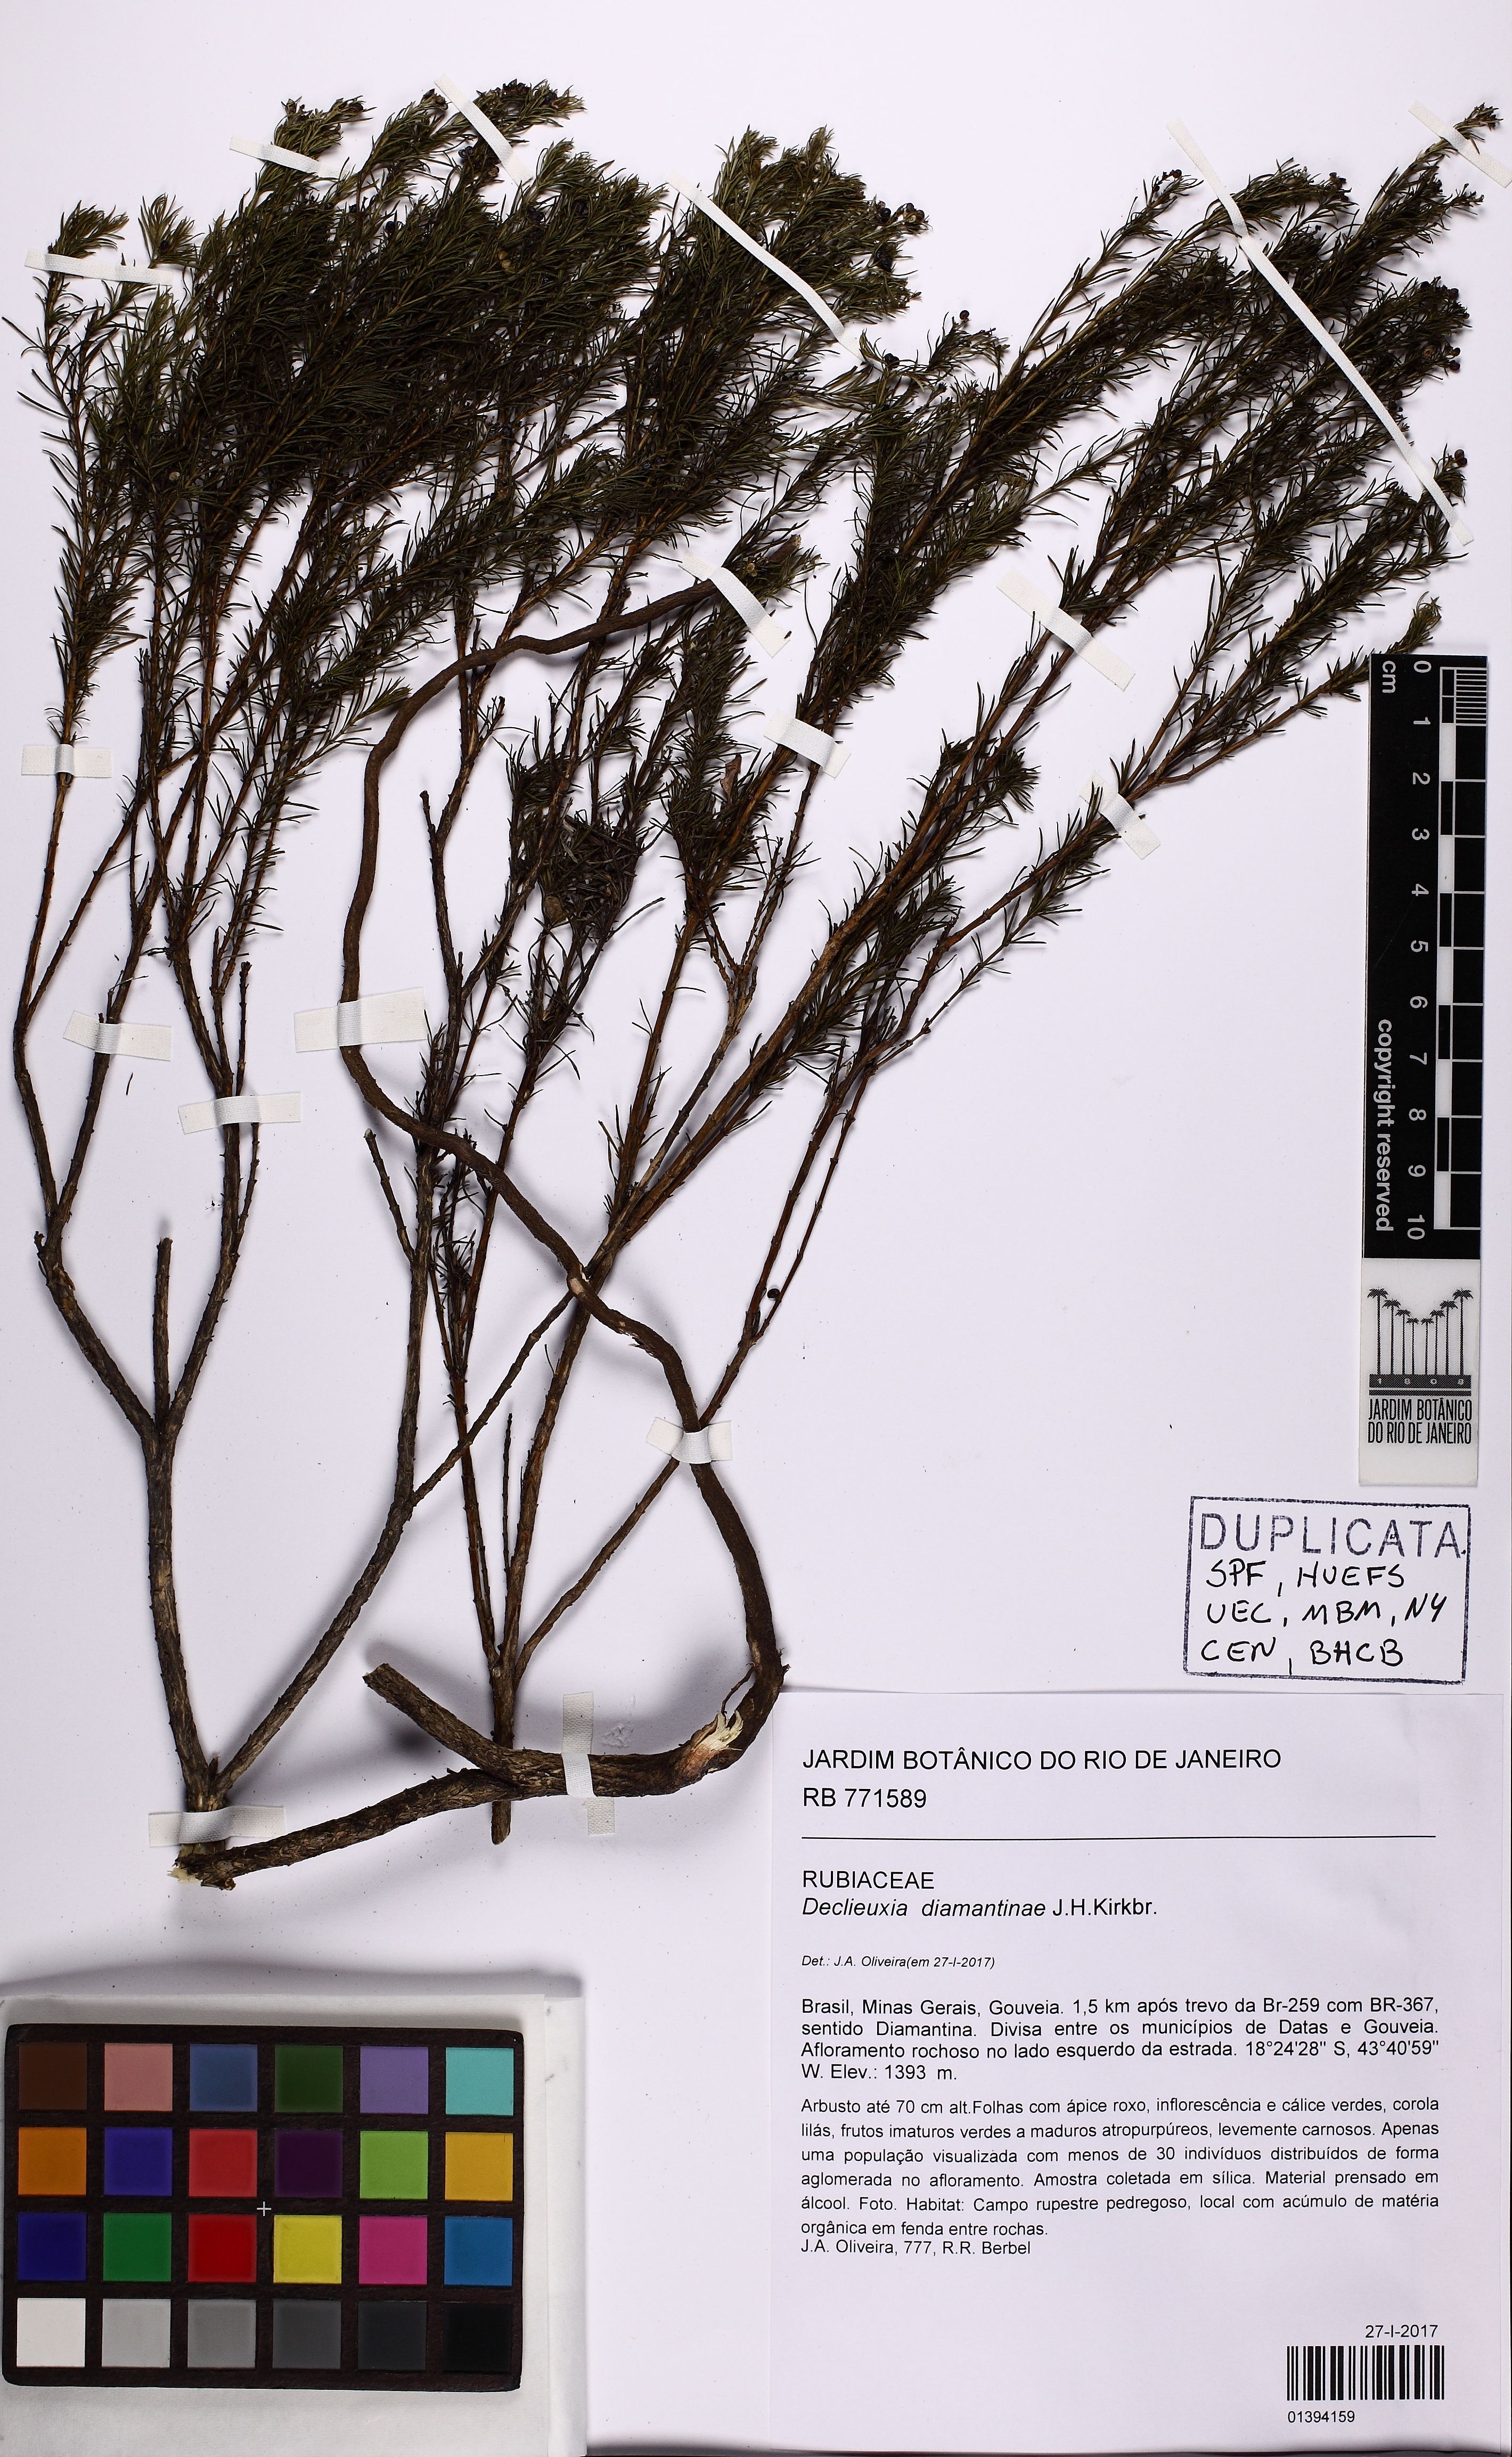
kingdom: Plantae
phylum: Tracheophyta
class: Magnoliopsida
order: Gentianales
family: Rubiaceae
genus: Declieuxia
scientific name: Declieuxia diamantinae
